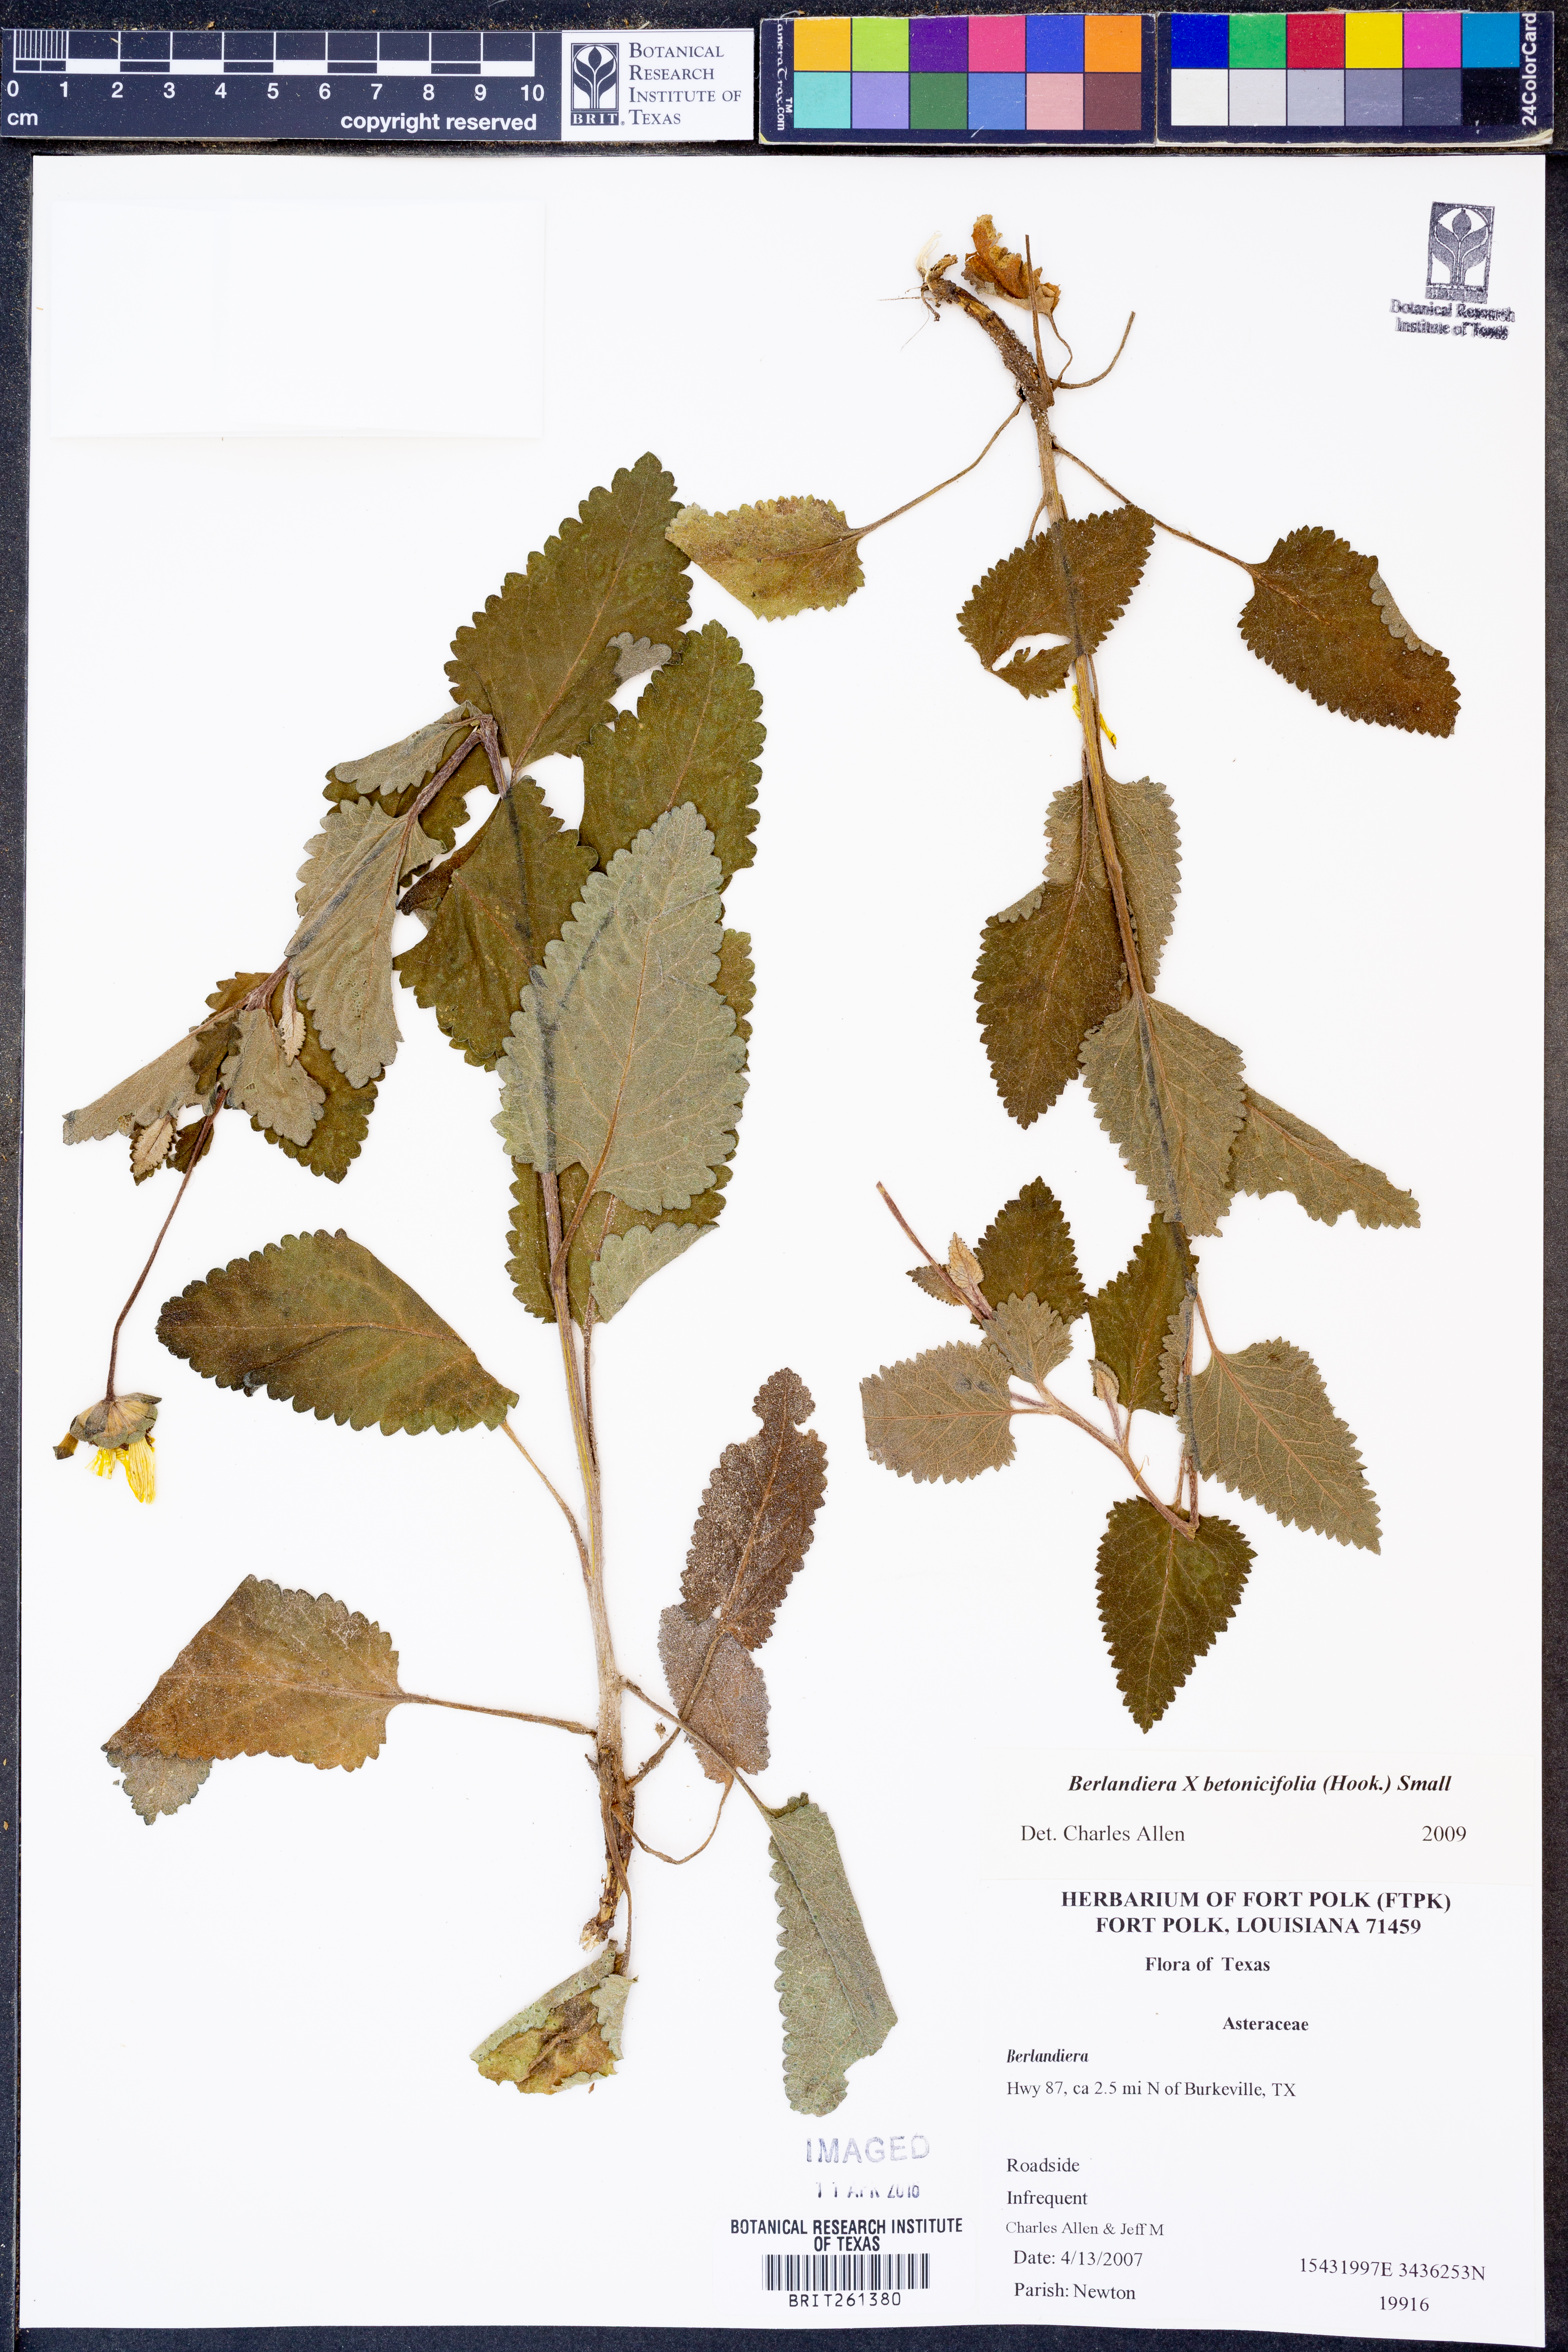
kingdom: Plantae
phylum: Tracheophyta
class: Magnoliopsida
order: Asterales
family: Asteraceae
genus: Berlandiera
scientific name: Berlandiera betonicifolia
